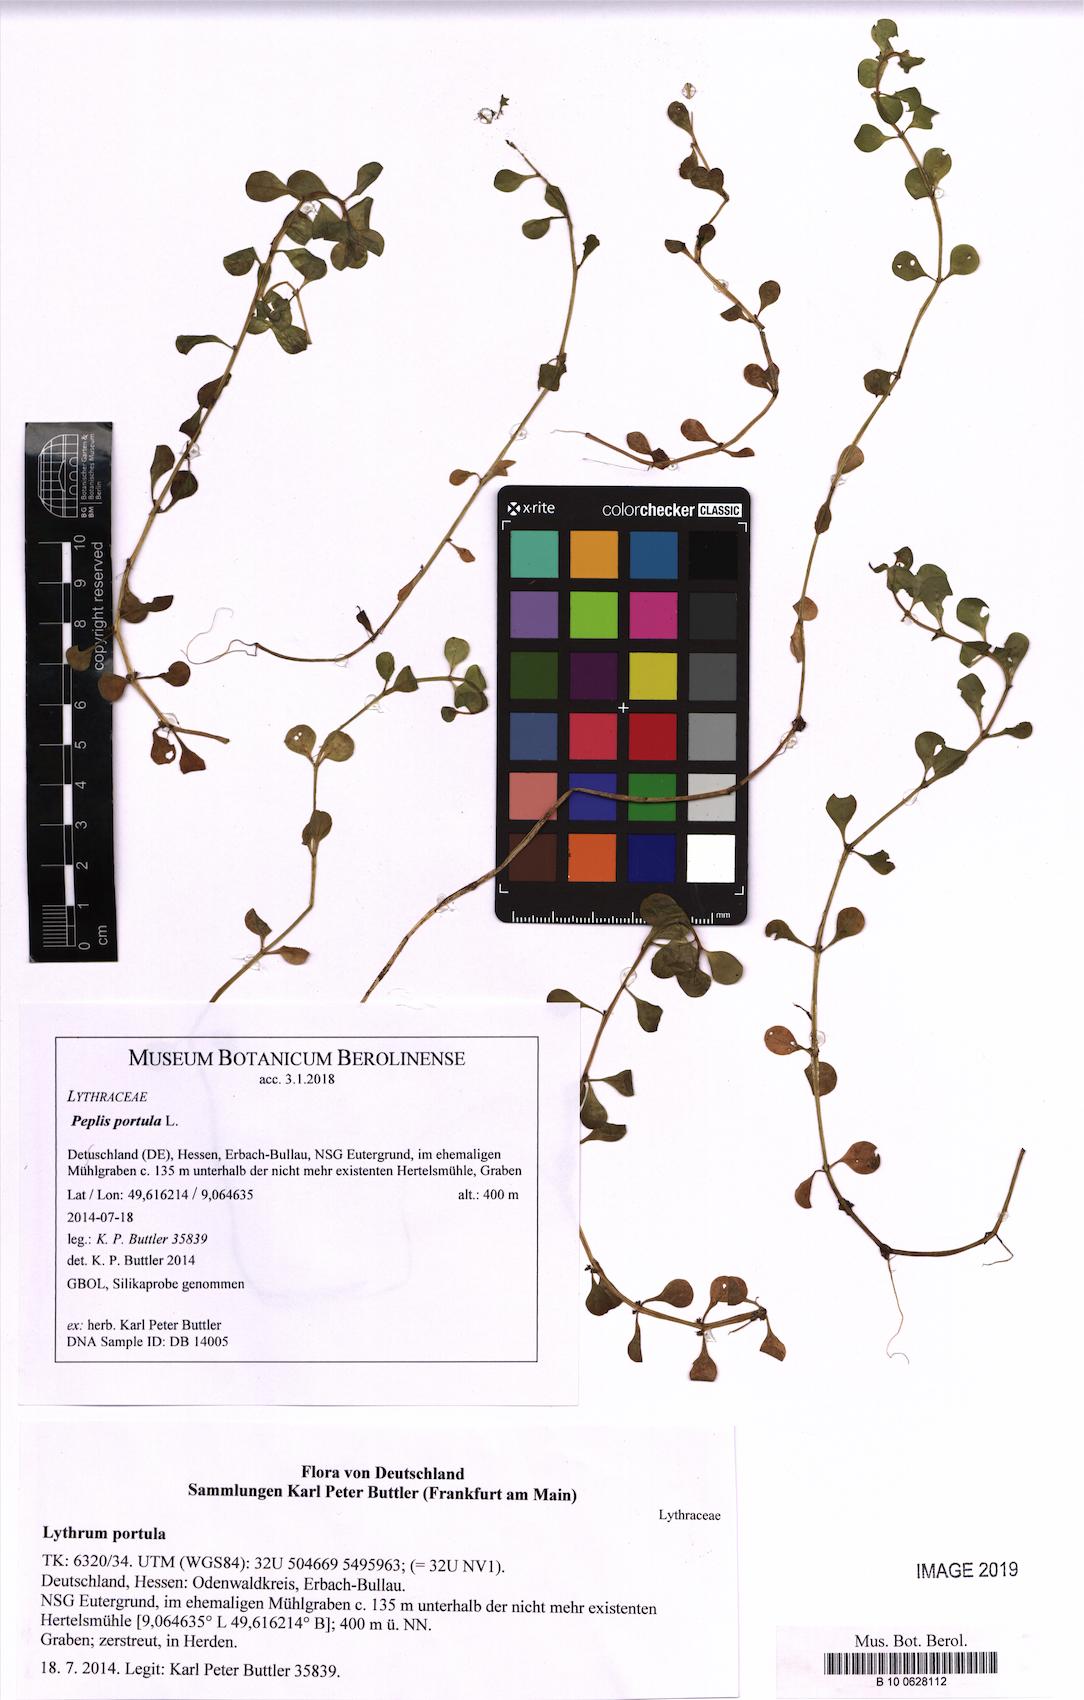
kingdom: Plantae
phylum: Tracheophyta
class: Magnoliopsida
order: Myrtales
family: Lythraceae
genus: Lythrum
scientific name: Lythrum portula
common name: Water purslane
